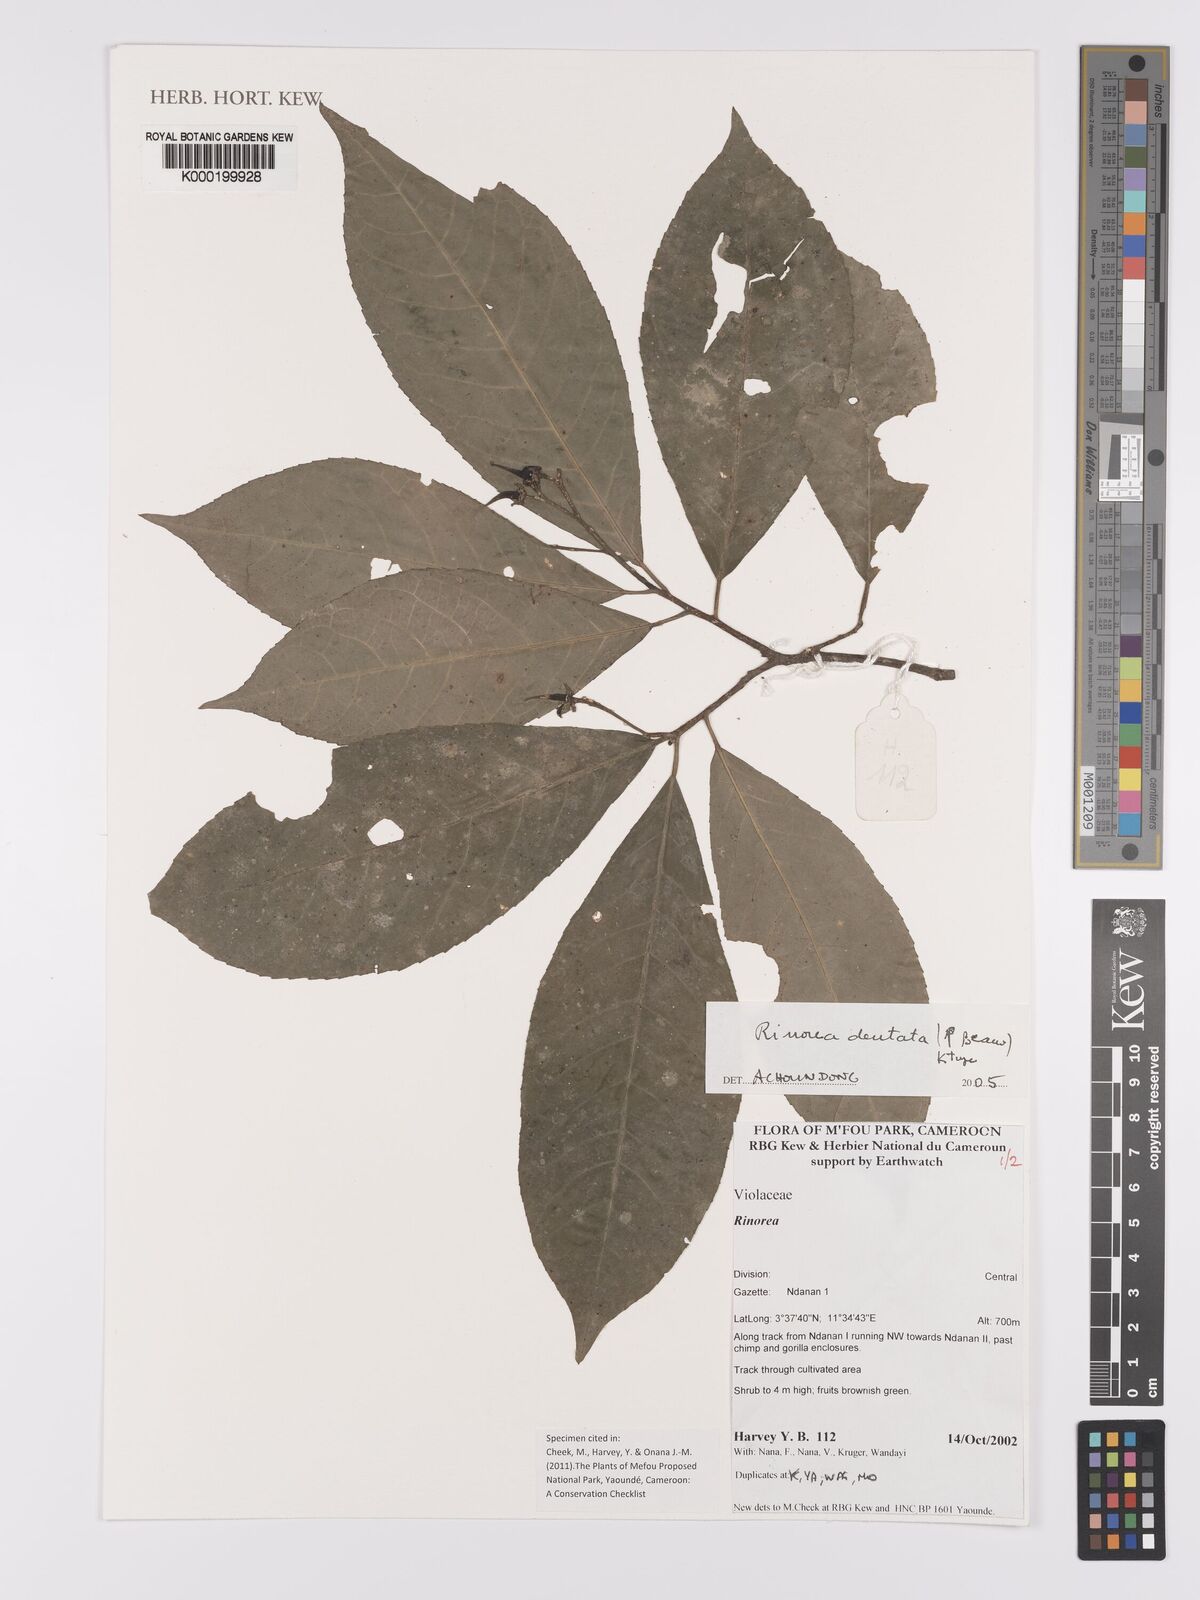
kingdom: Plantae
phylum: Tracheophyta
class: Magnoliopsida
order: Malpighiales
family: Violaceae
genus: Rinorea
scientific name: Rinorea dentata
